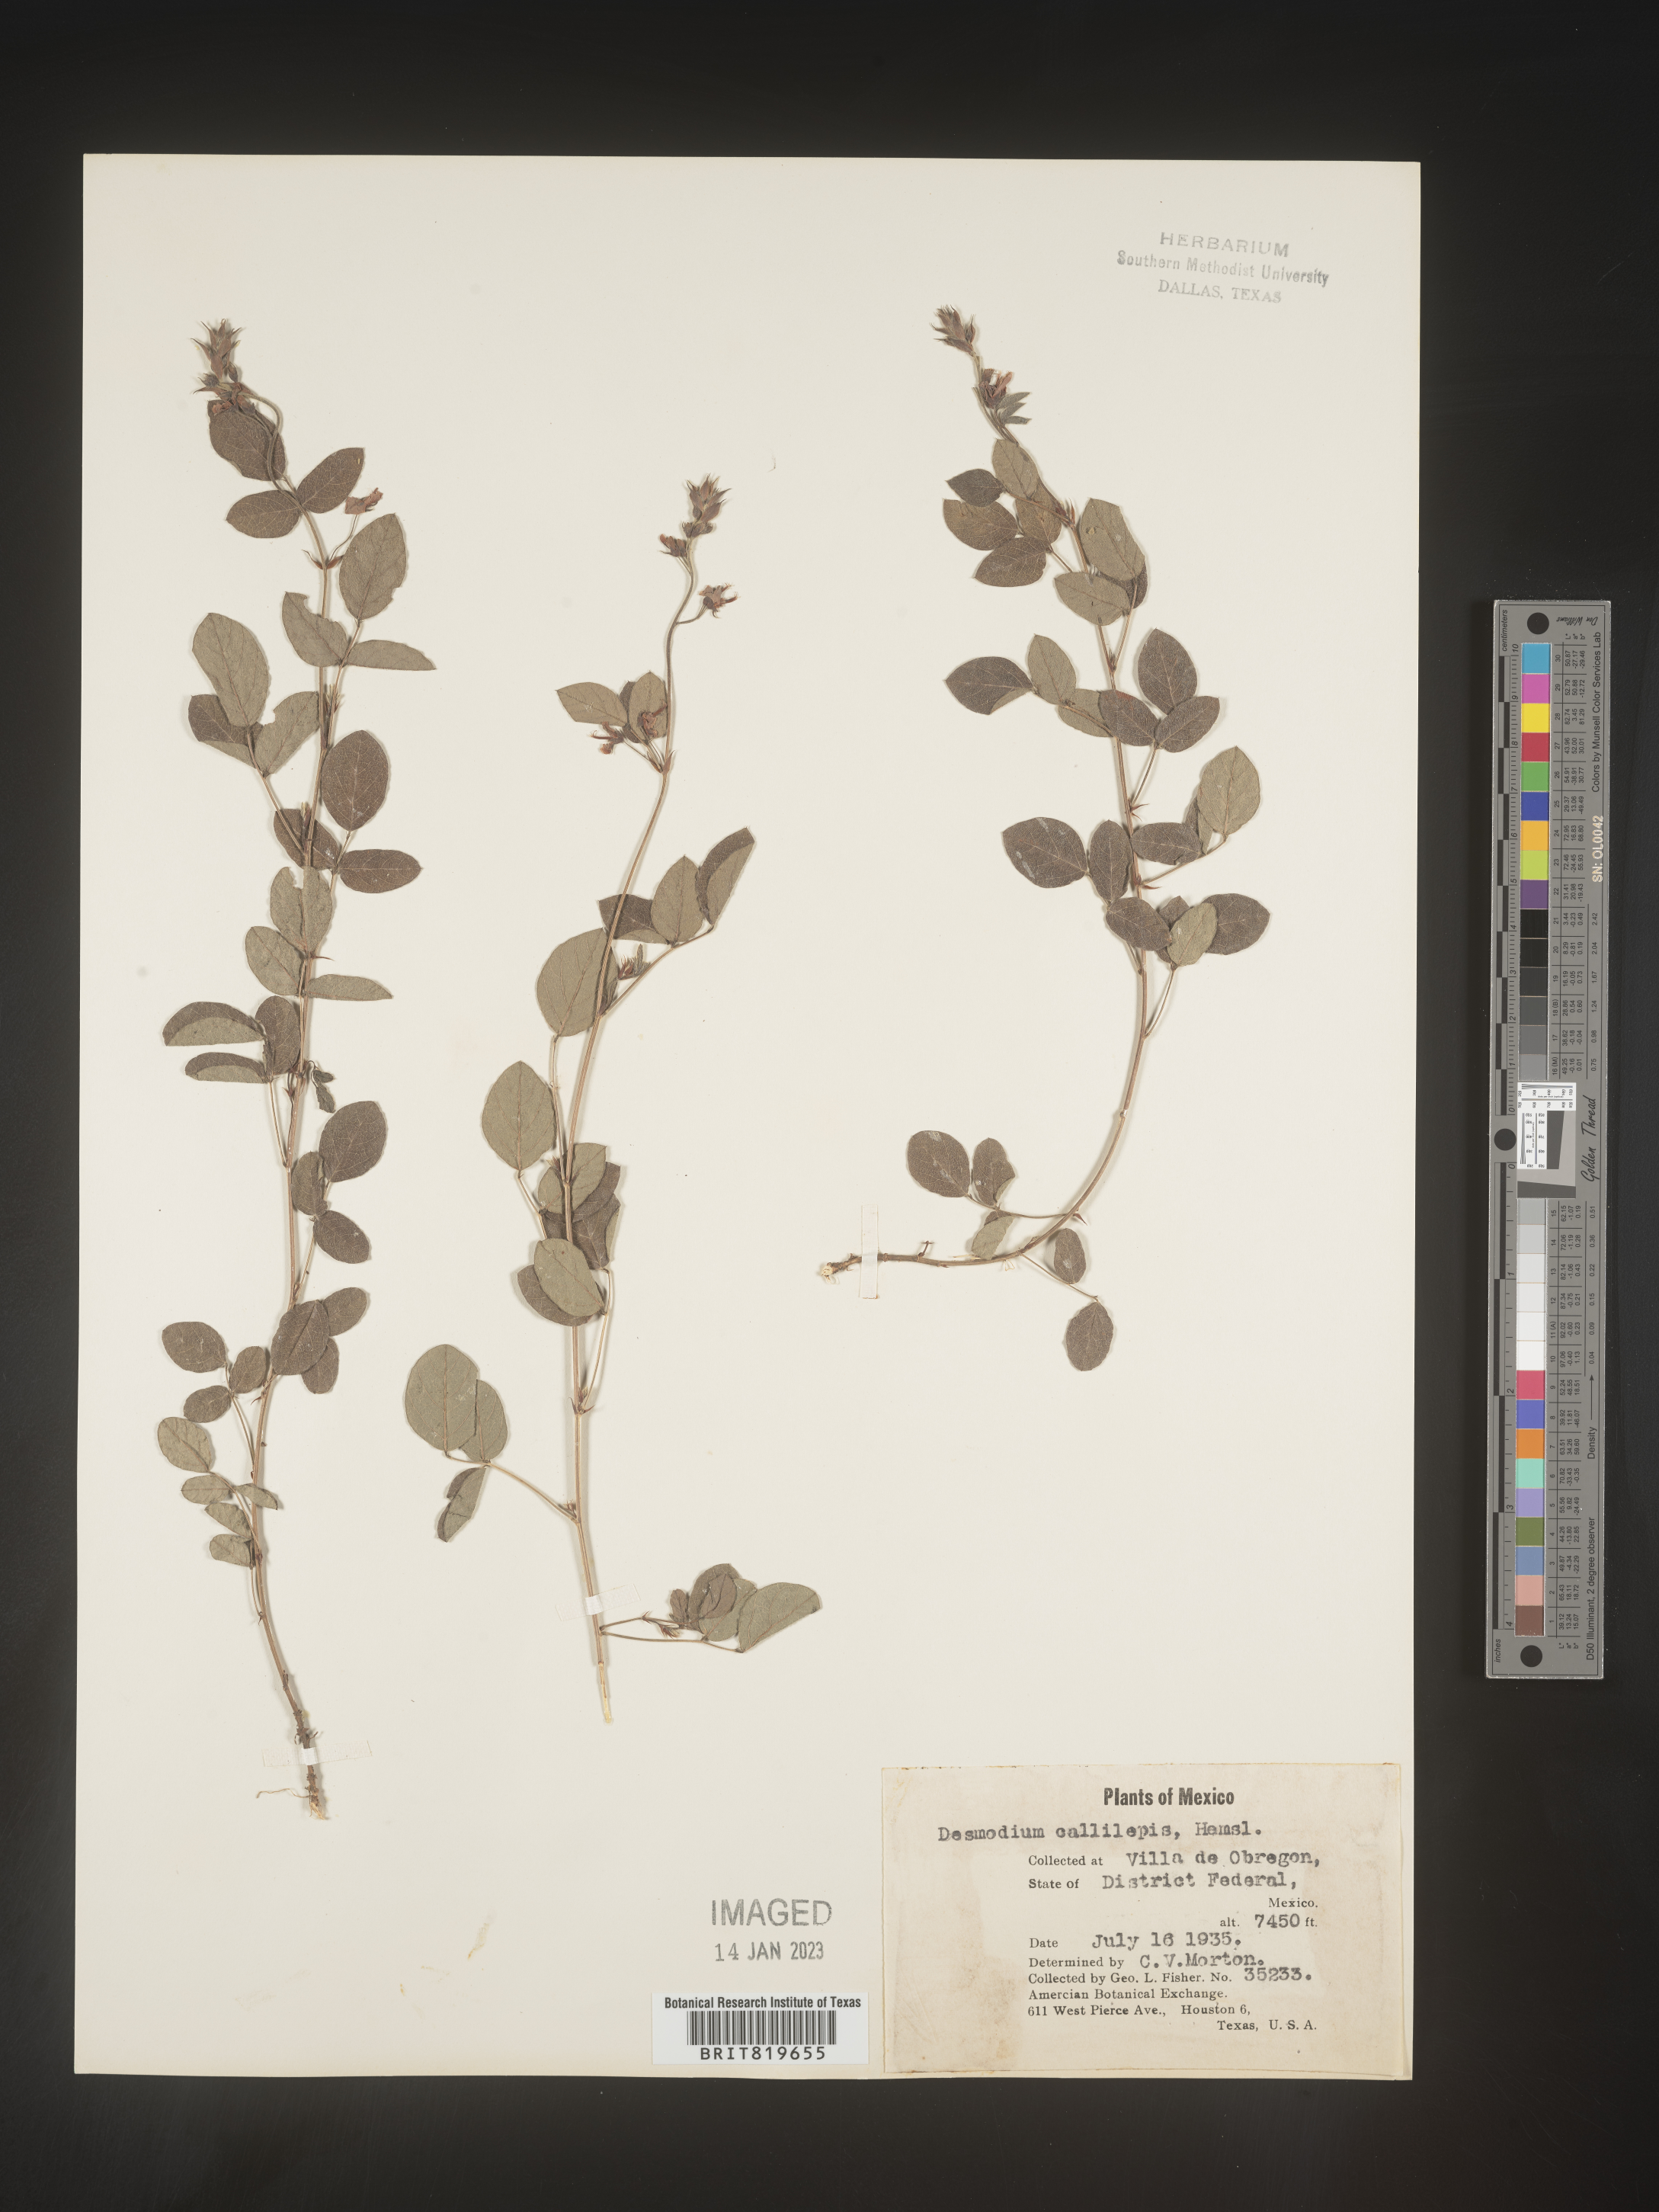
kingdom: Plantae
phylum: Tracheophyta
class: Magnoliopsida
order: Fabales
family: Fabaceae
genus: Desmodium
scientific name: Desmodium
